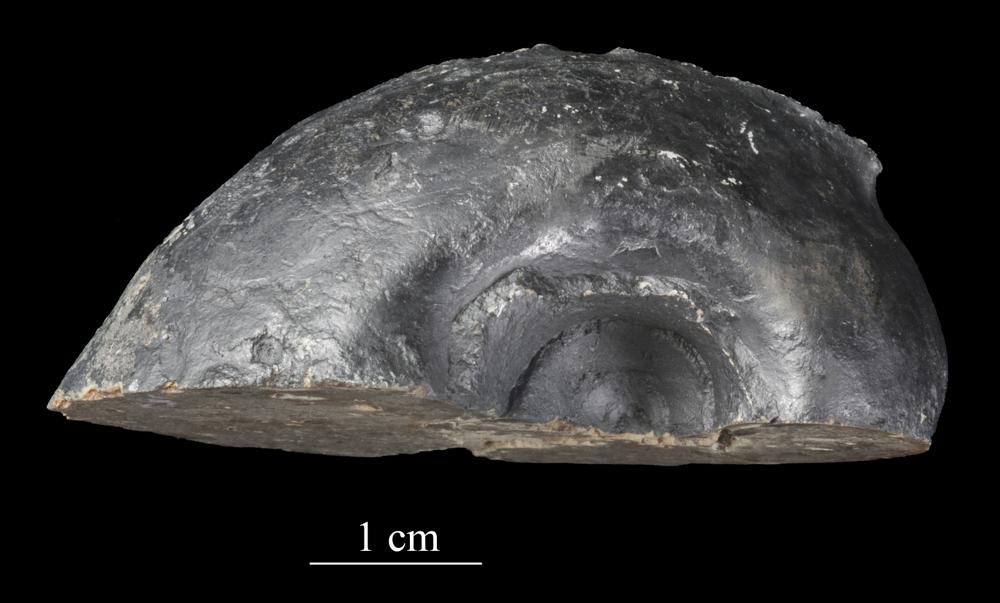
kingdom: Animalia
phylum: Mollusca
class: Gastropoda
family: Bellerophontidae
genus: Bellerophon
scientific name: Bellerophon
